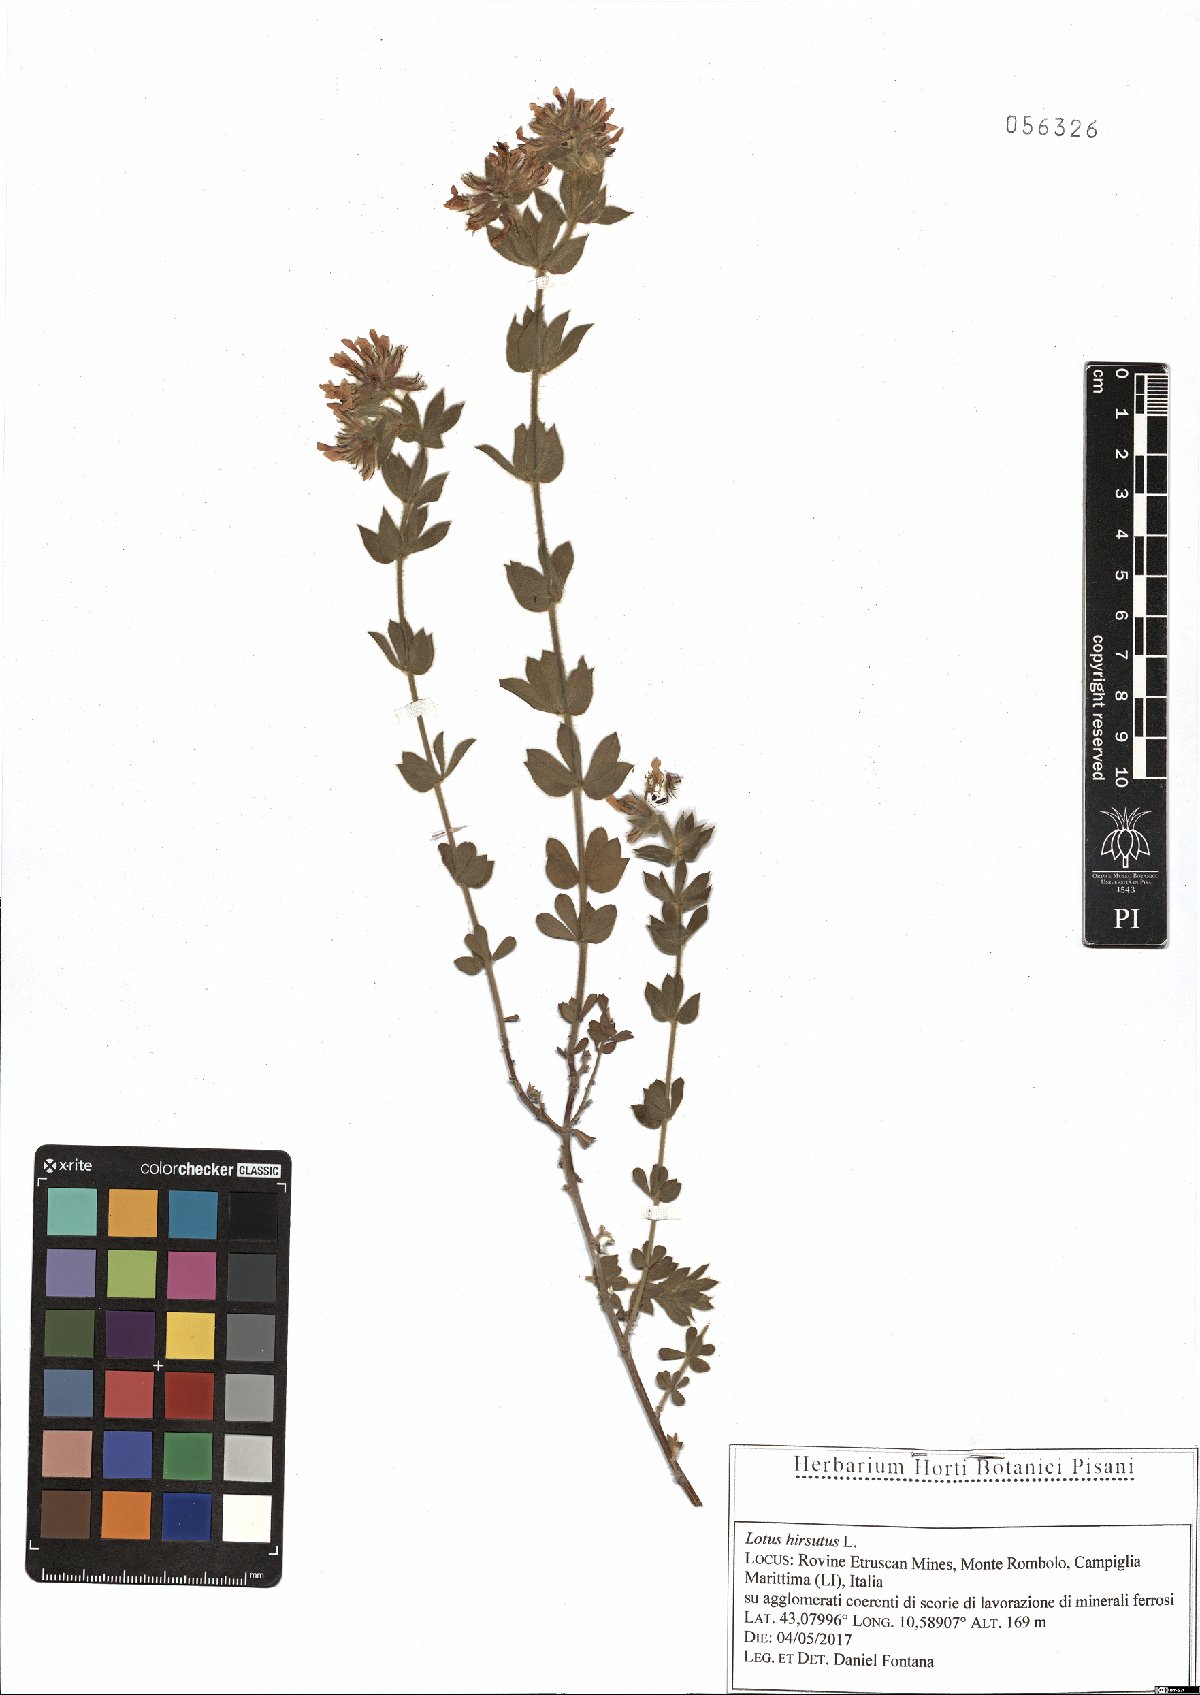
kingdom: Plantae
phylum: Tracheophyta
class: Magnoliopsida
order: Fabales
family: Fabaceae
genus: Lotus
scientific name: Lotus hirsutus
